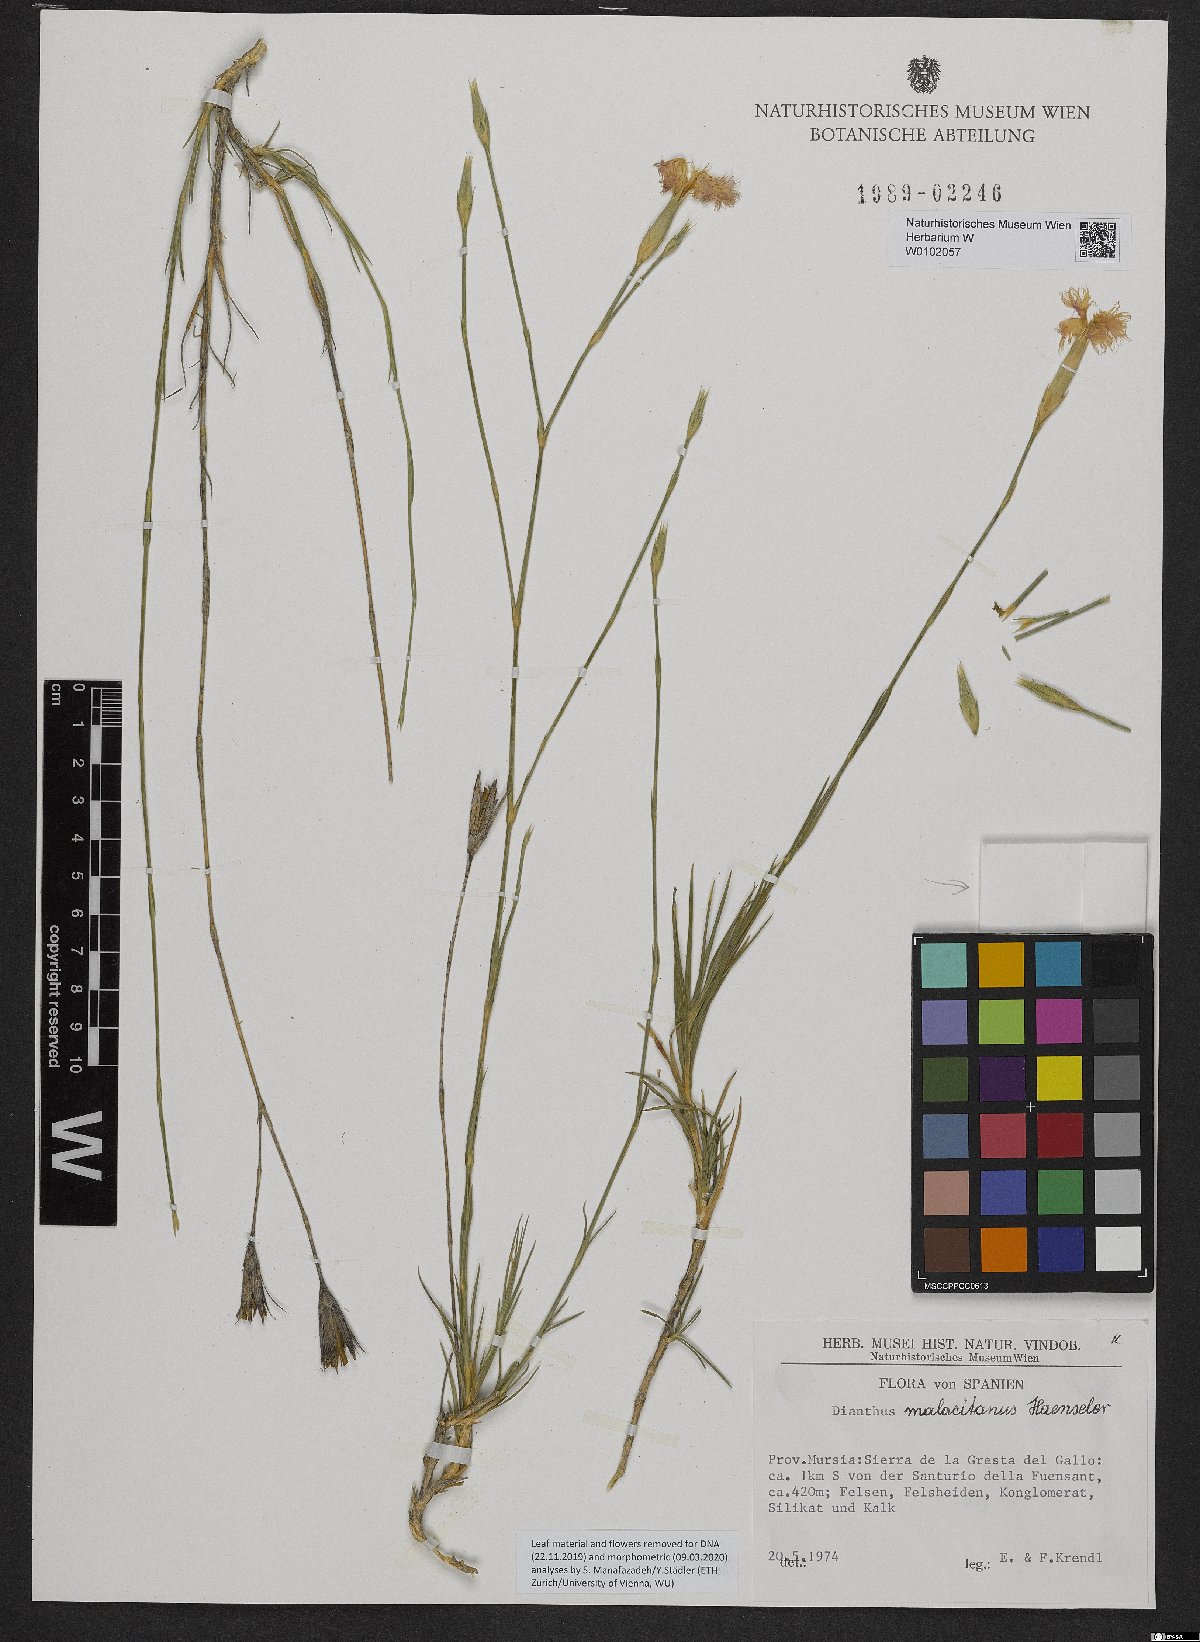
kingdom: Plantae
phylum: Tracheophyta
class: Magnoliopsida
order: Caryophyllales
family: Caryophyllaceae
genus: Dianthus
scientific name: Dianthus broteri
